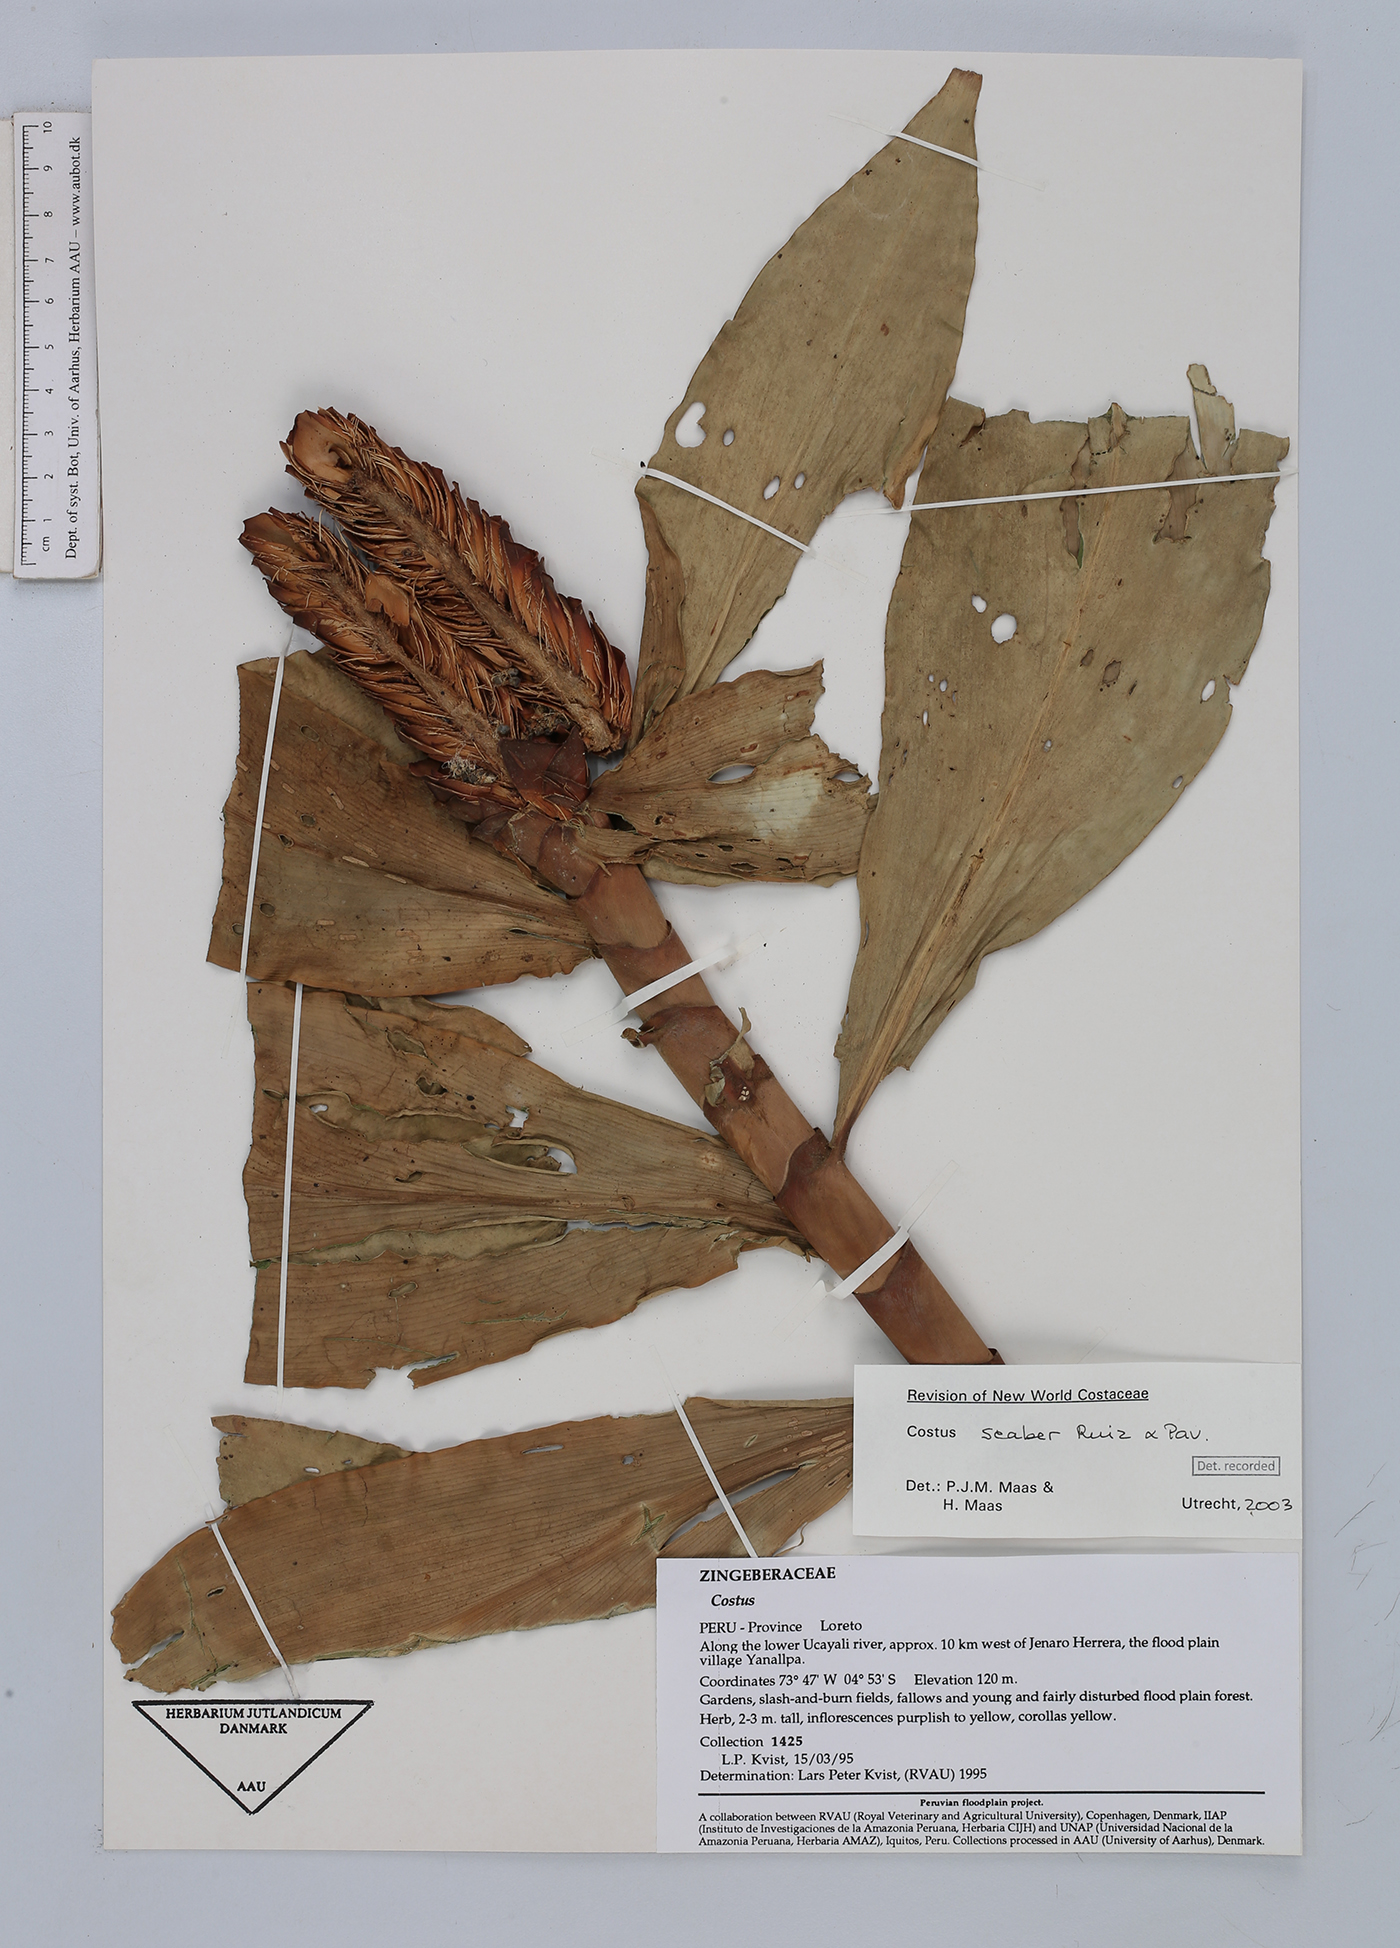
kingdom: Plantae
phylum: Tracheophyta
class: Liliopsida
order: Zingiberales
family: Costaceae
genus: Costus
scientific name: Costus scaber
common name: Spiral head ginger
